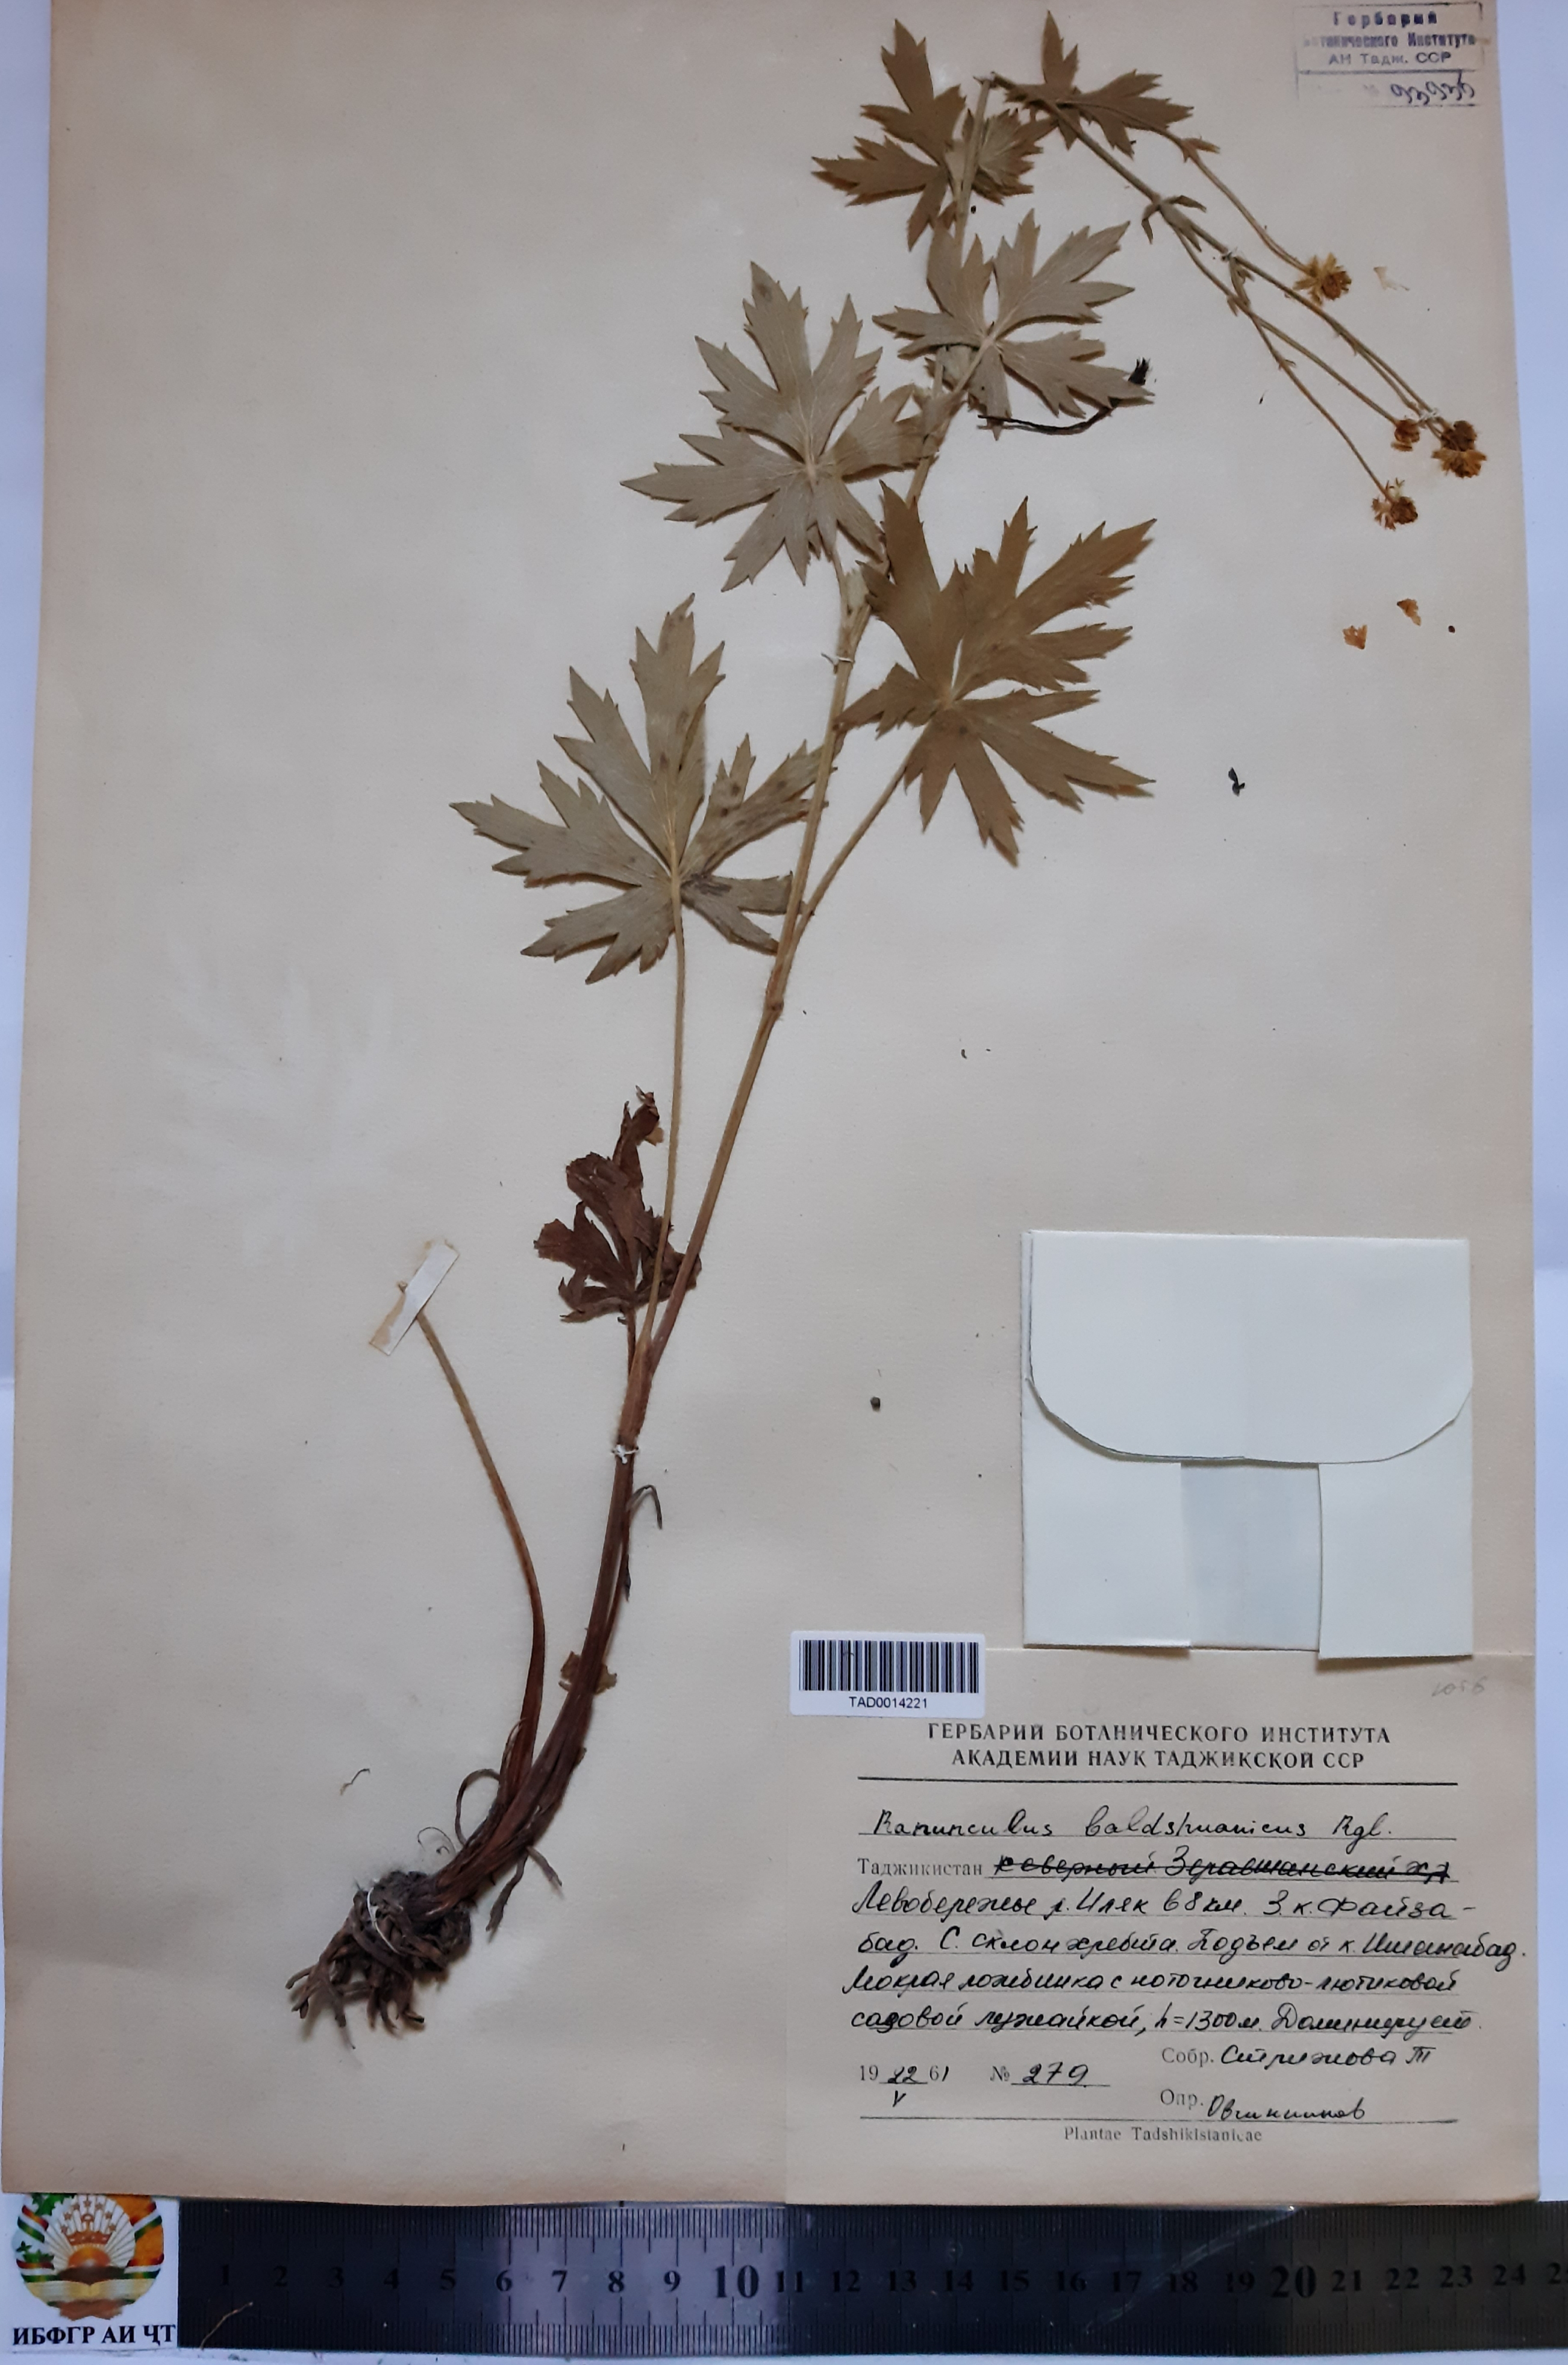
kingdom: Plantae
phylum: Tracheophyta
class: Magnoliopsida
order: Ranunculales
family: Ranunculaceae
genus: Ranunculus
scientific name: Ranunculus baldshuanicus
